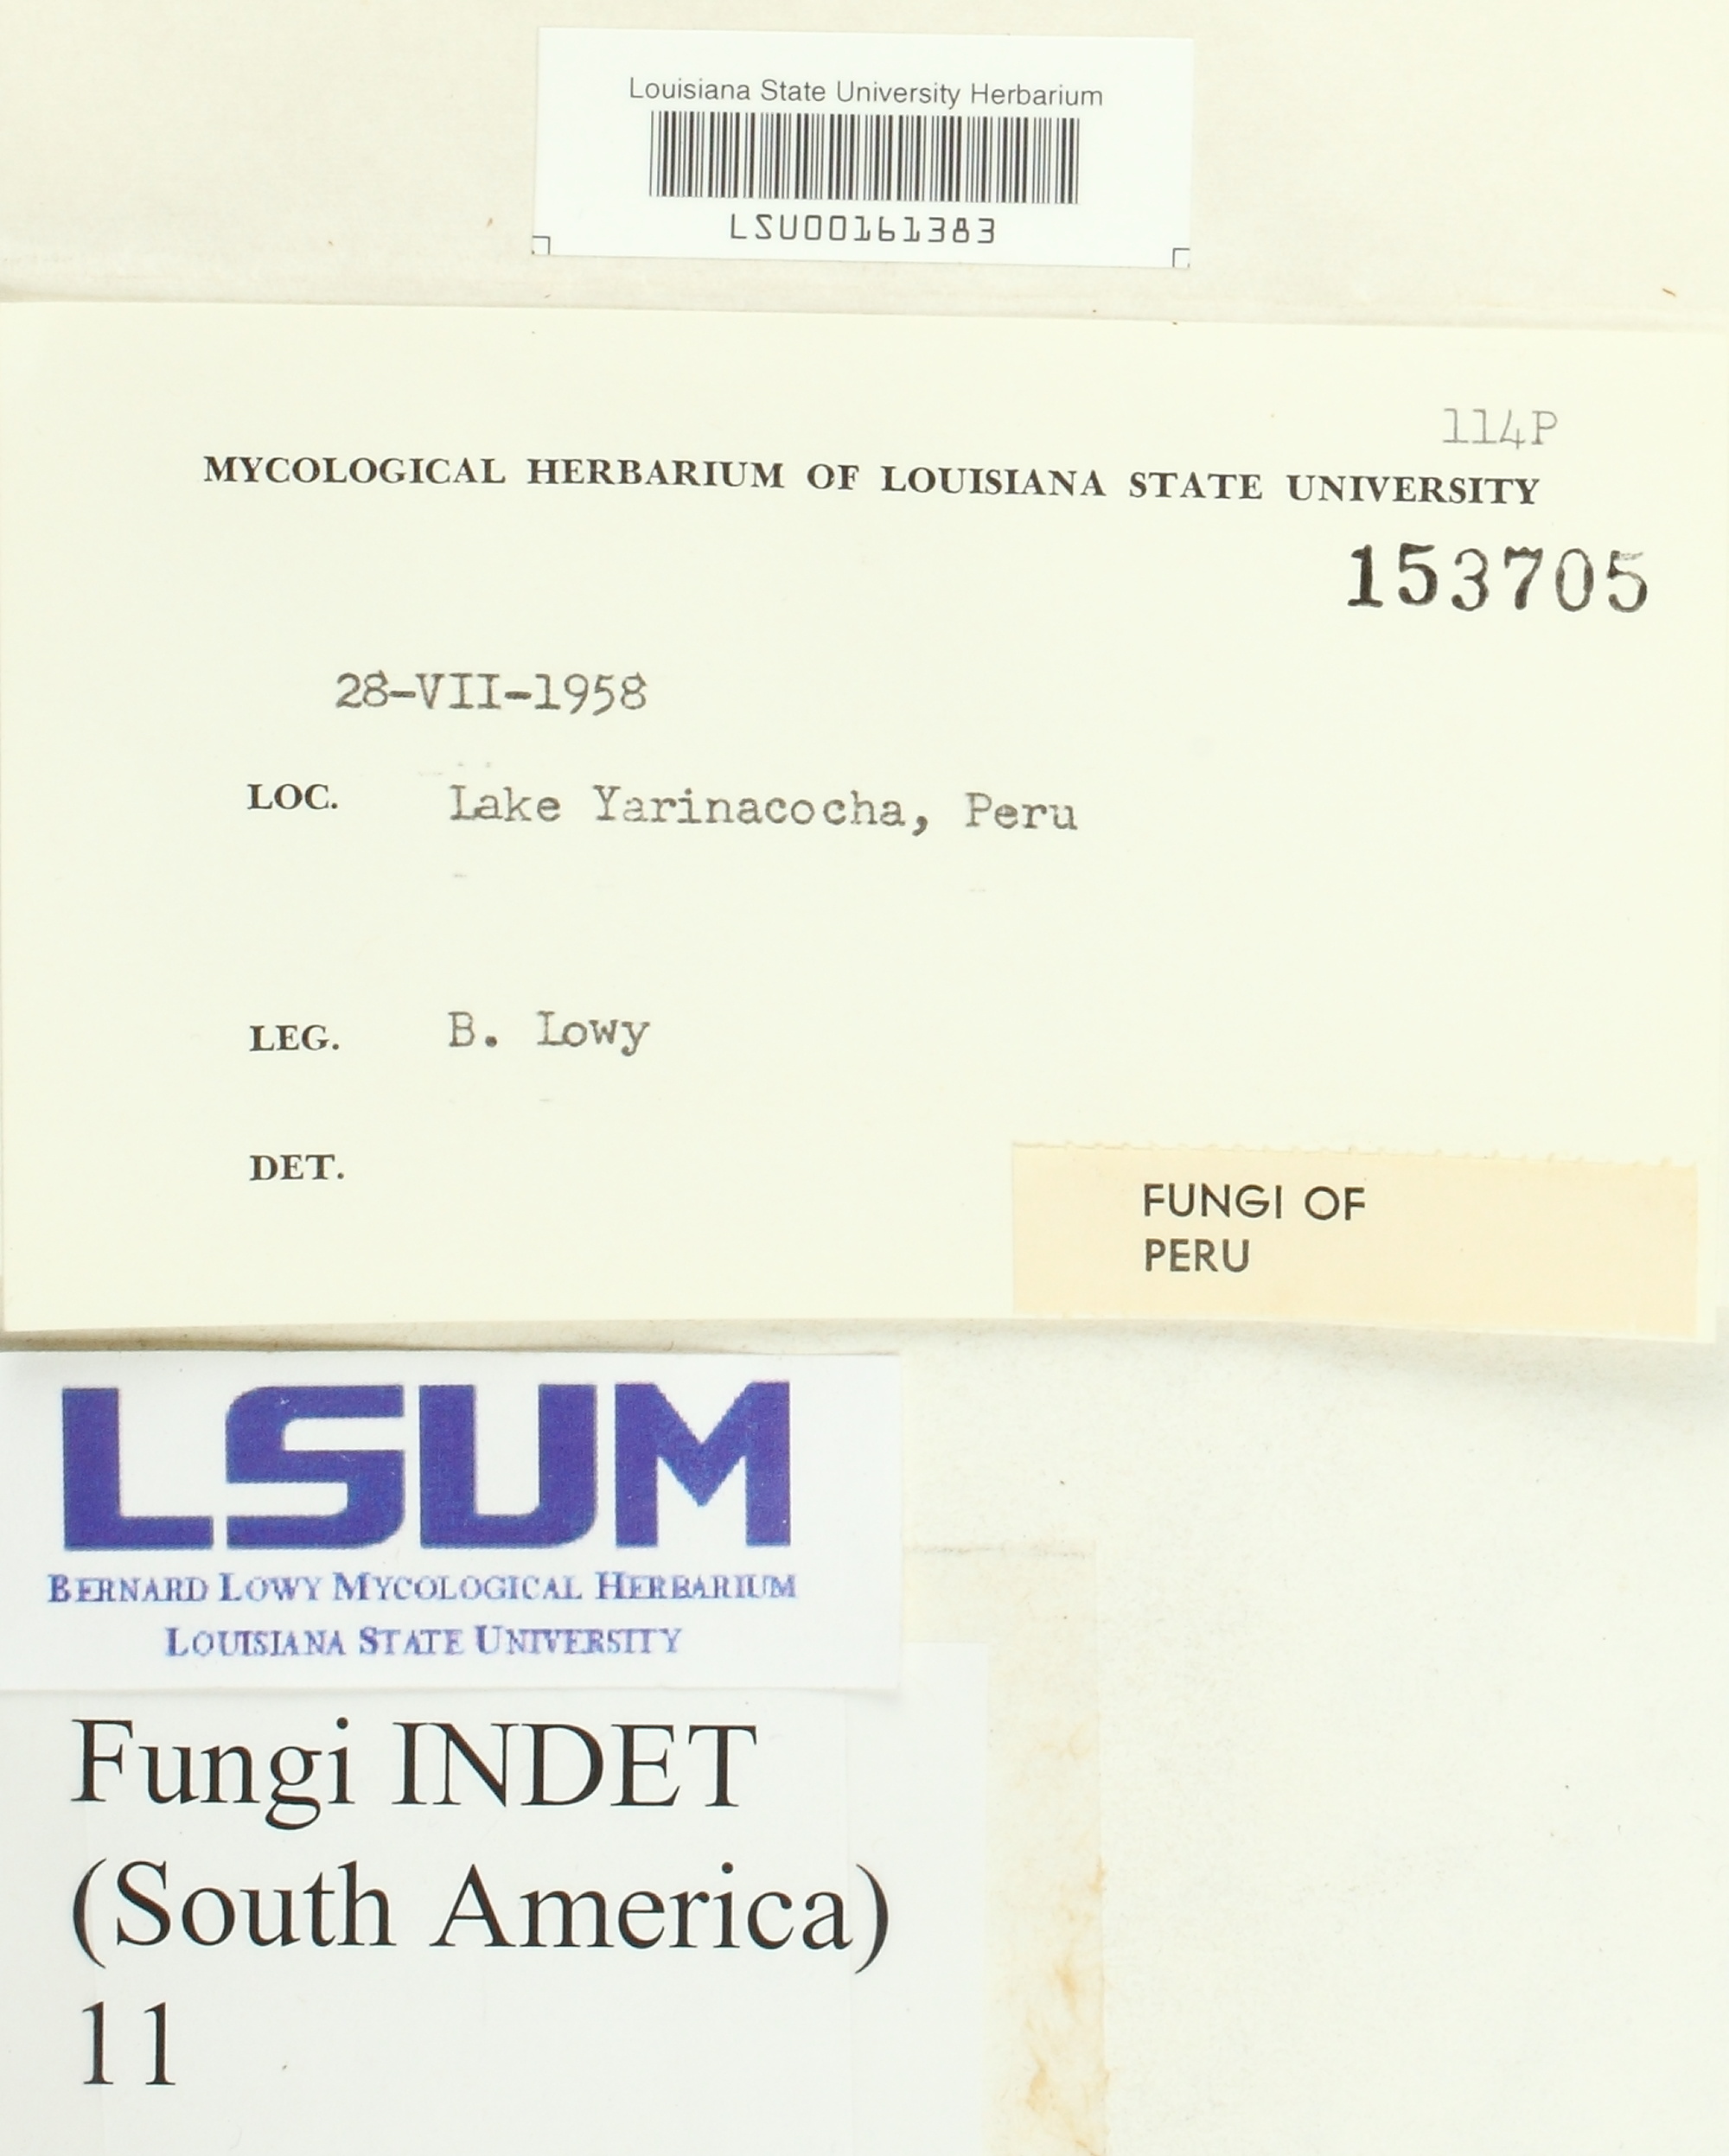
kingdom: Fungi
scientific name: Fungi
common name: Fungi
